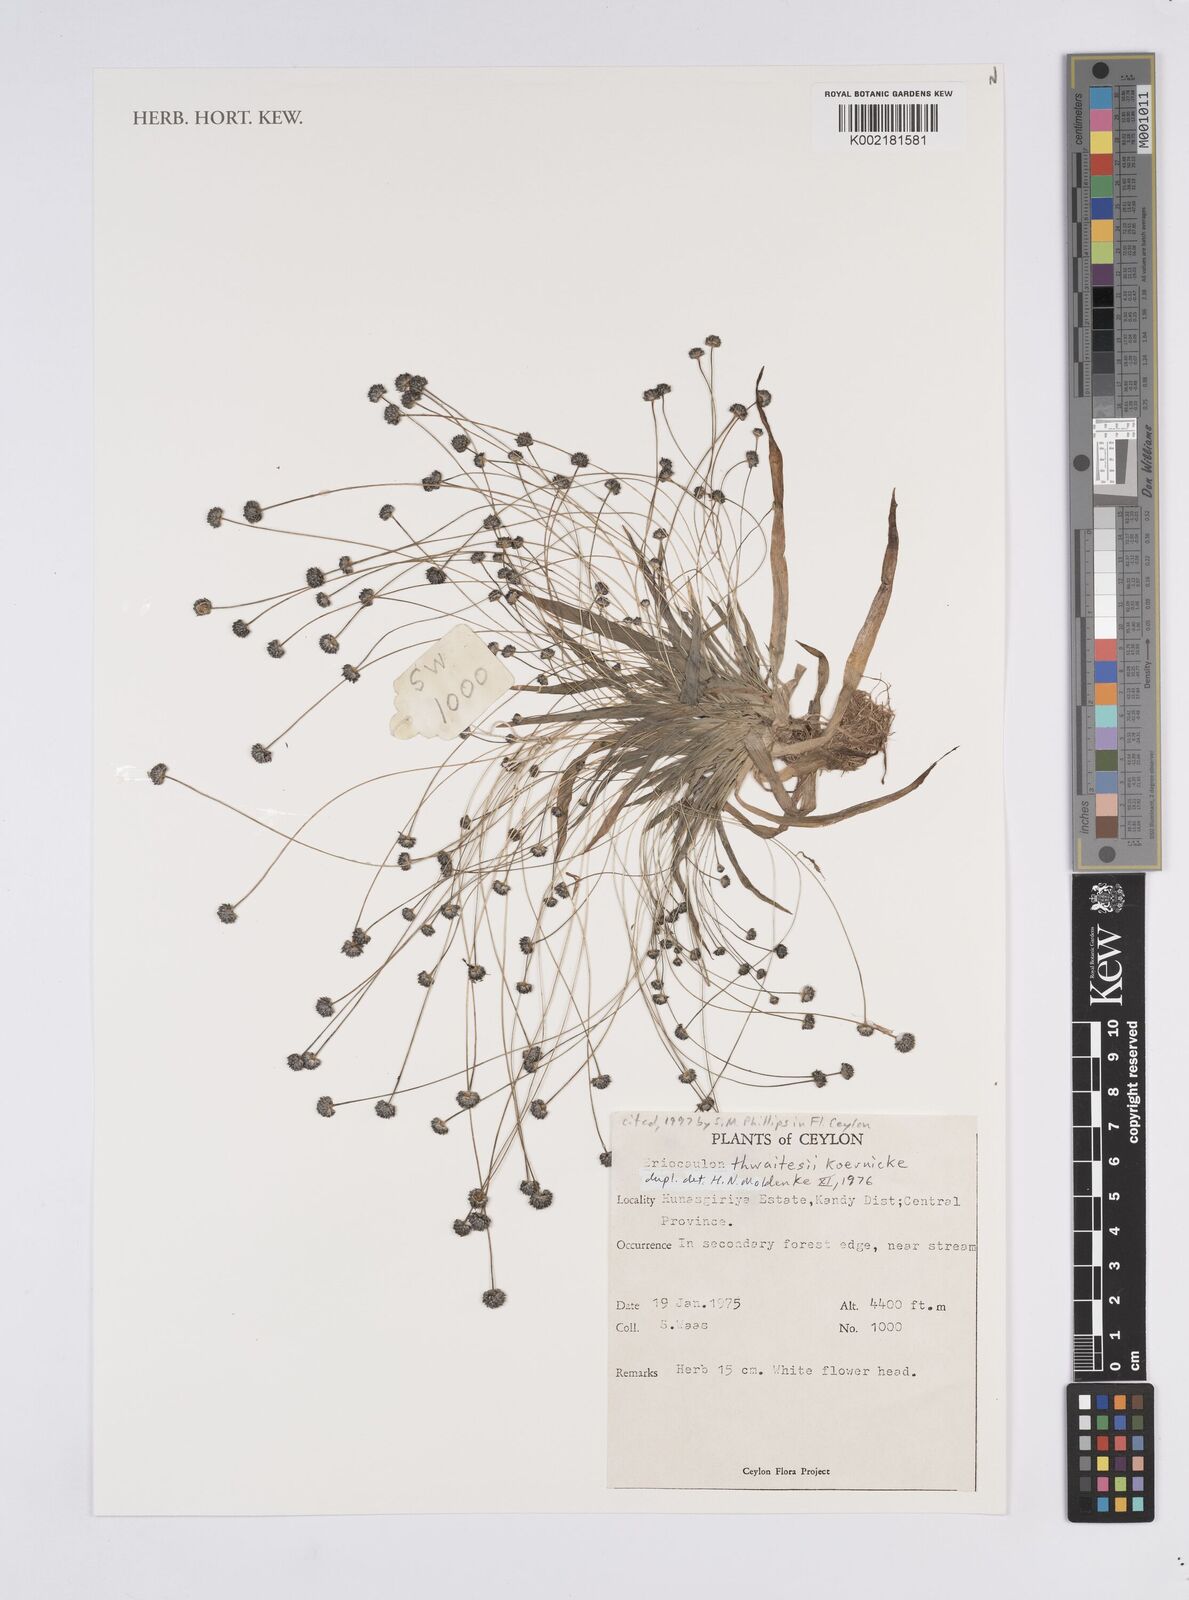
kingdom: Plantae
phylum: Tracheophyta
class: Liliopsida
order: Poales
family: Eriocaulaceae
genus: Eriocaulon
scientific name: Eriocaulon thwaitesii
